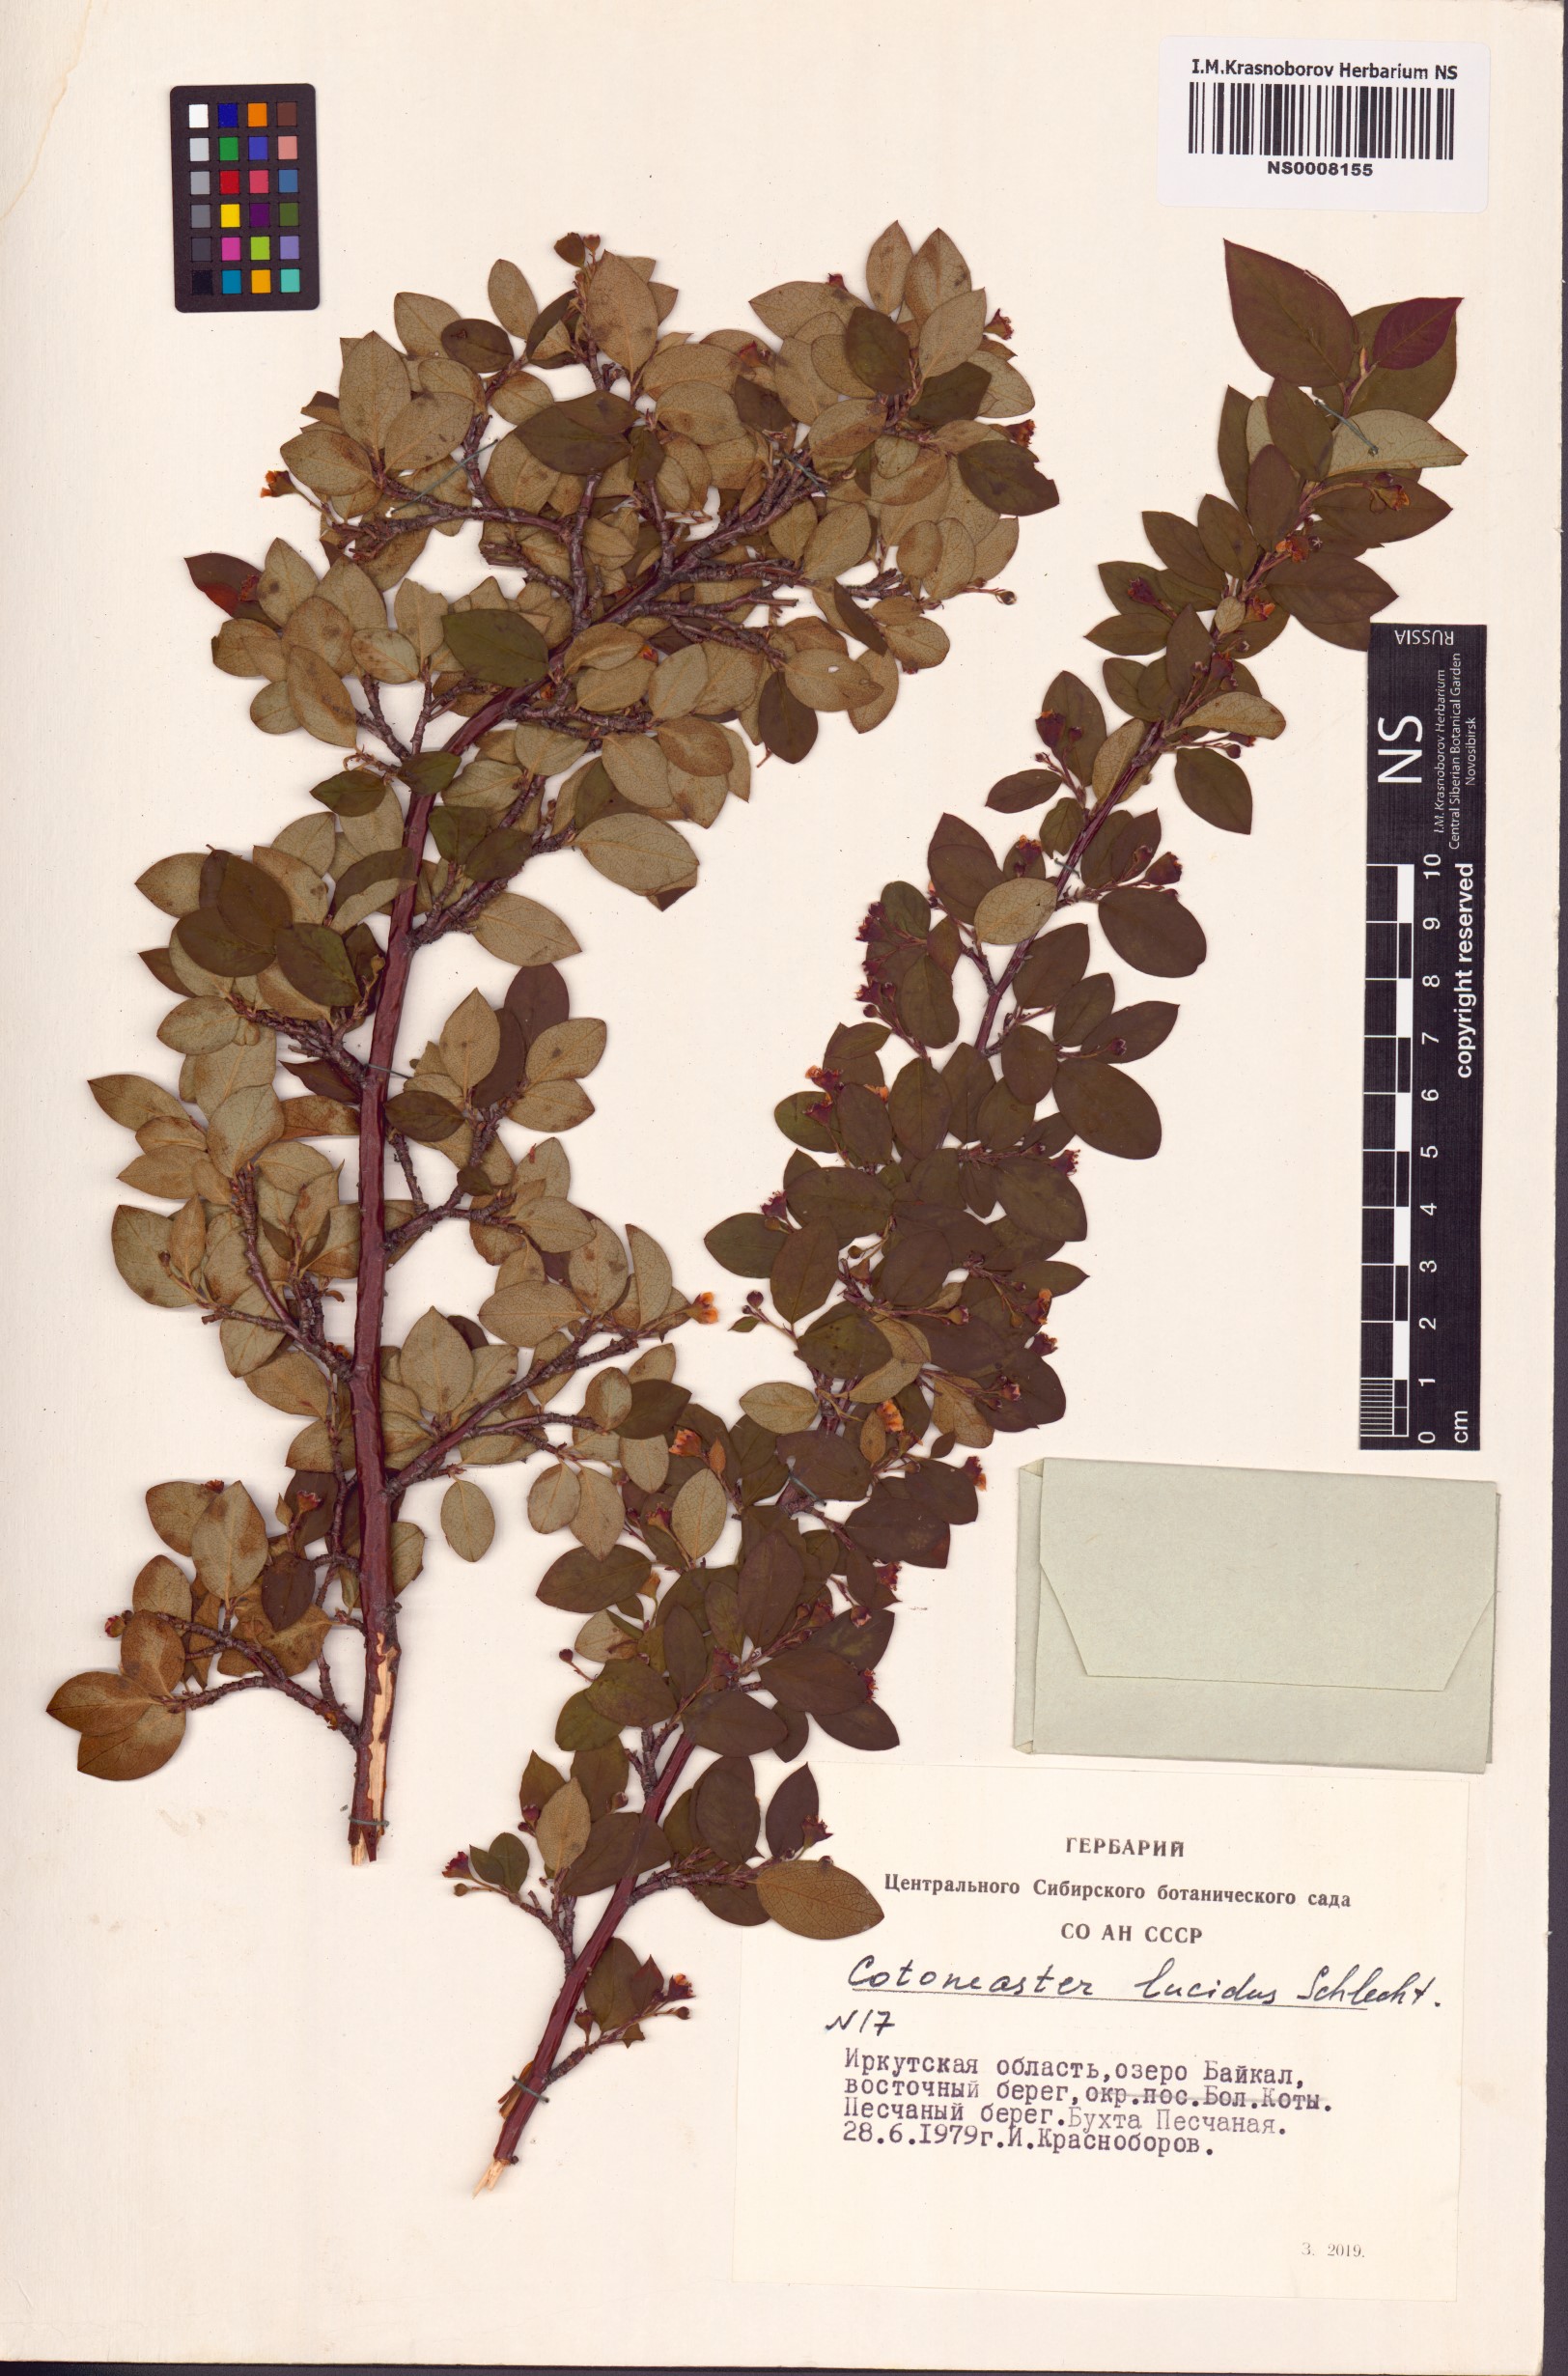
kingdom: Plantae
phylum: Tracheophyta
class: Magnoliopsida
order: Rosales
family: Rosaceae
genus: Cotoneaster
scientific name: Cotoneaster acutifolius
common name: Peking cotoneaster
